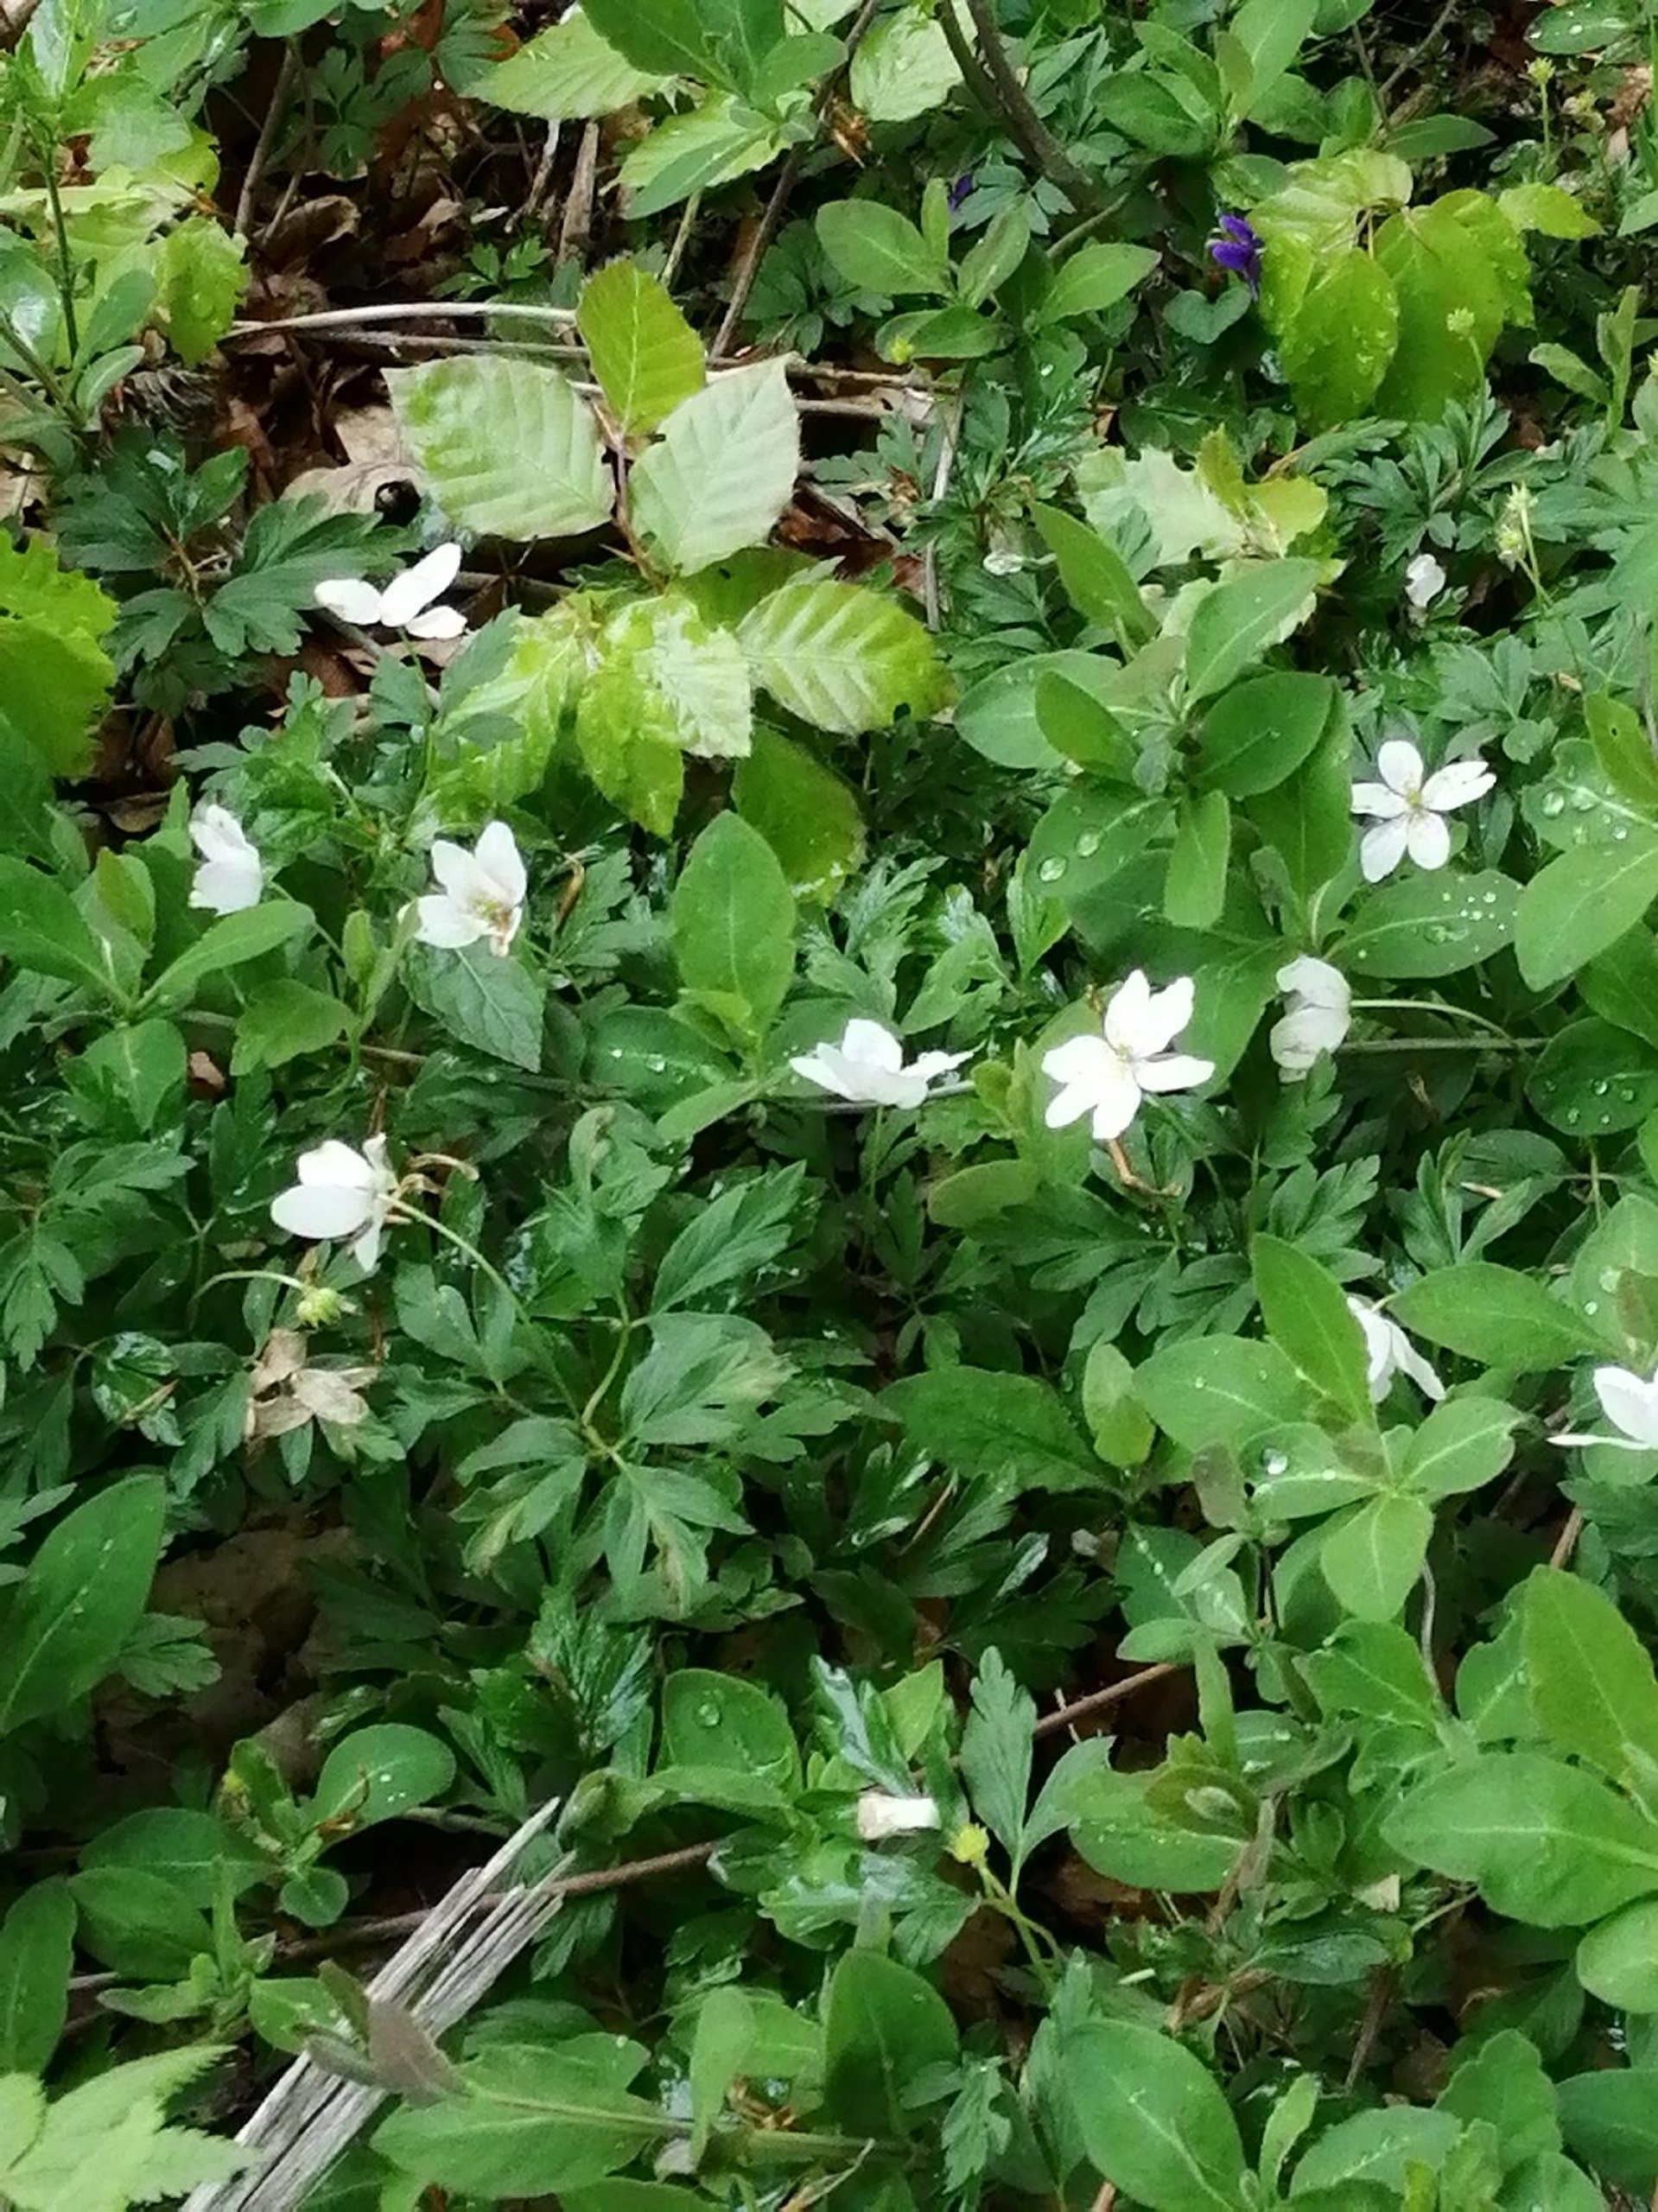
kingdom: Plantae
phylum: Tracheophyta
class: Magnoliopsida
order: Ranunculales
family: Ranunculaceae
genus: Anemone
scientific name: Anemone nemorosa
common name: Hvid anemone
